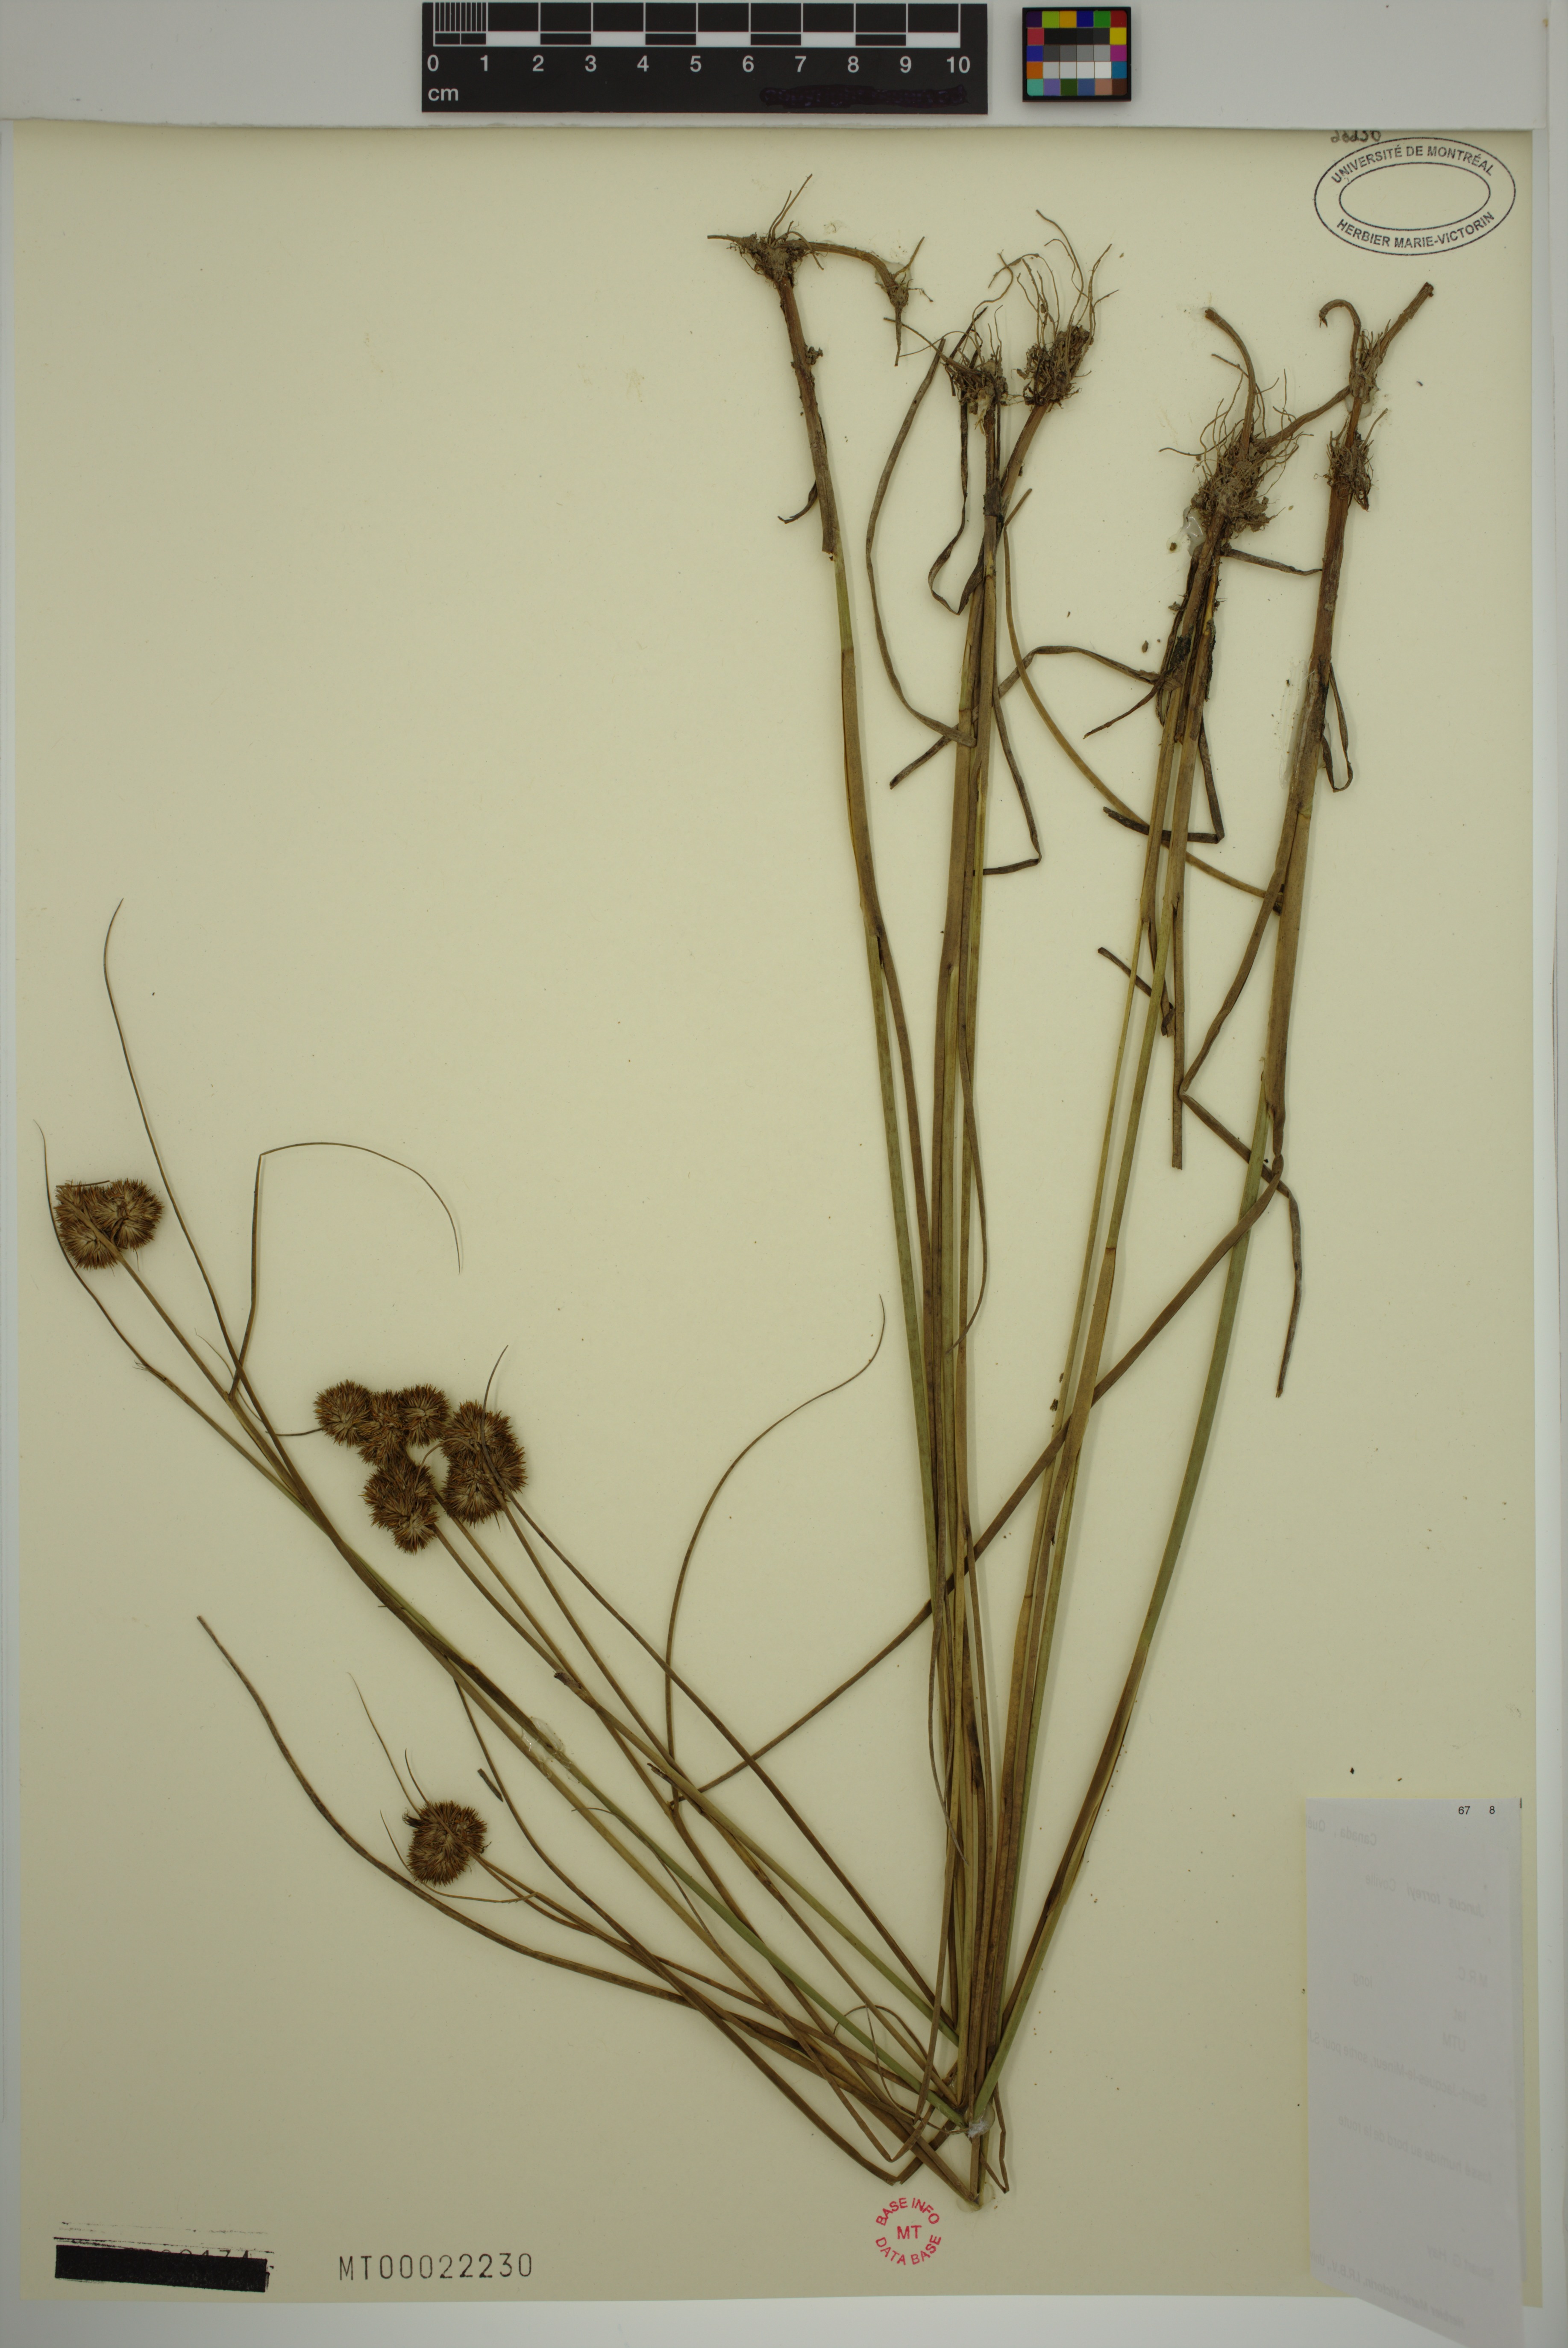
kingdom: Plantae
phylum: Tracheophyta
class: Liliopsida
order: Poales
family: Juncaceae
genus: Juncus
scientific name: Juncus torreyi
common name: Torrey's rush
